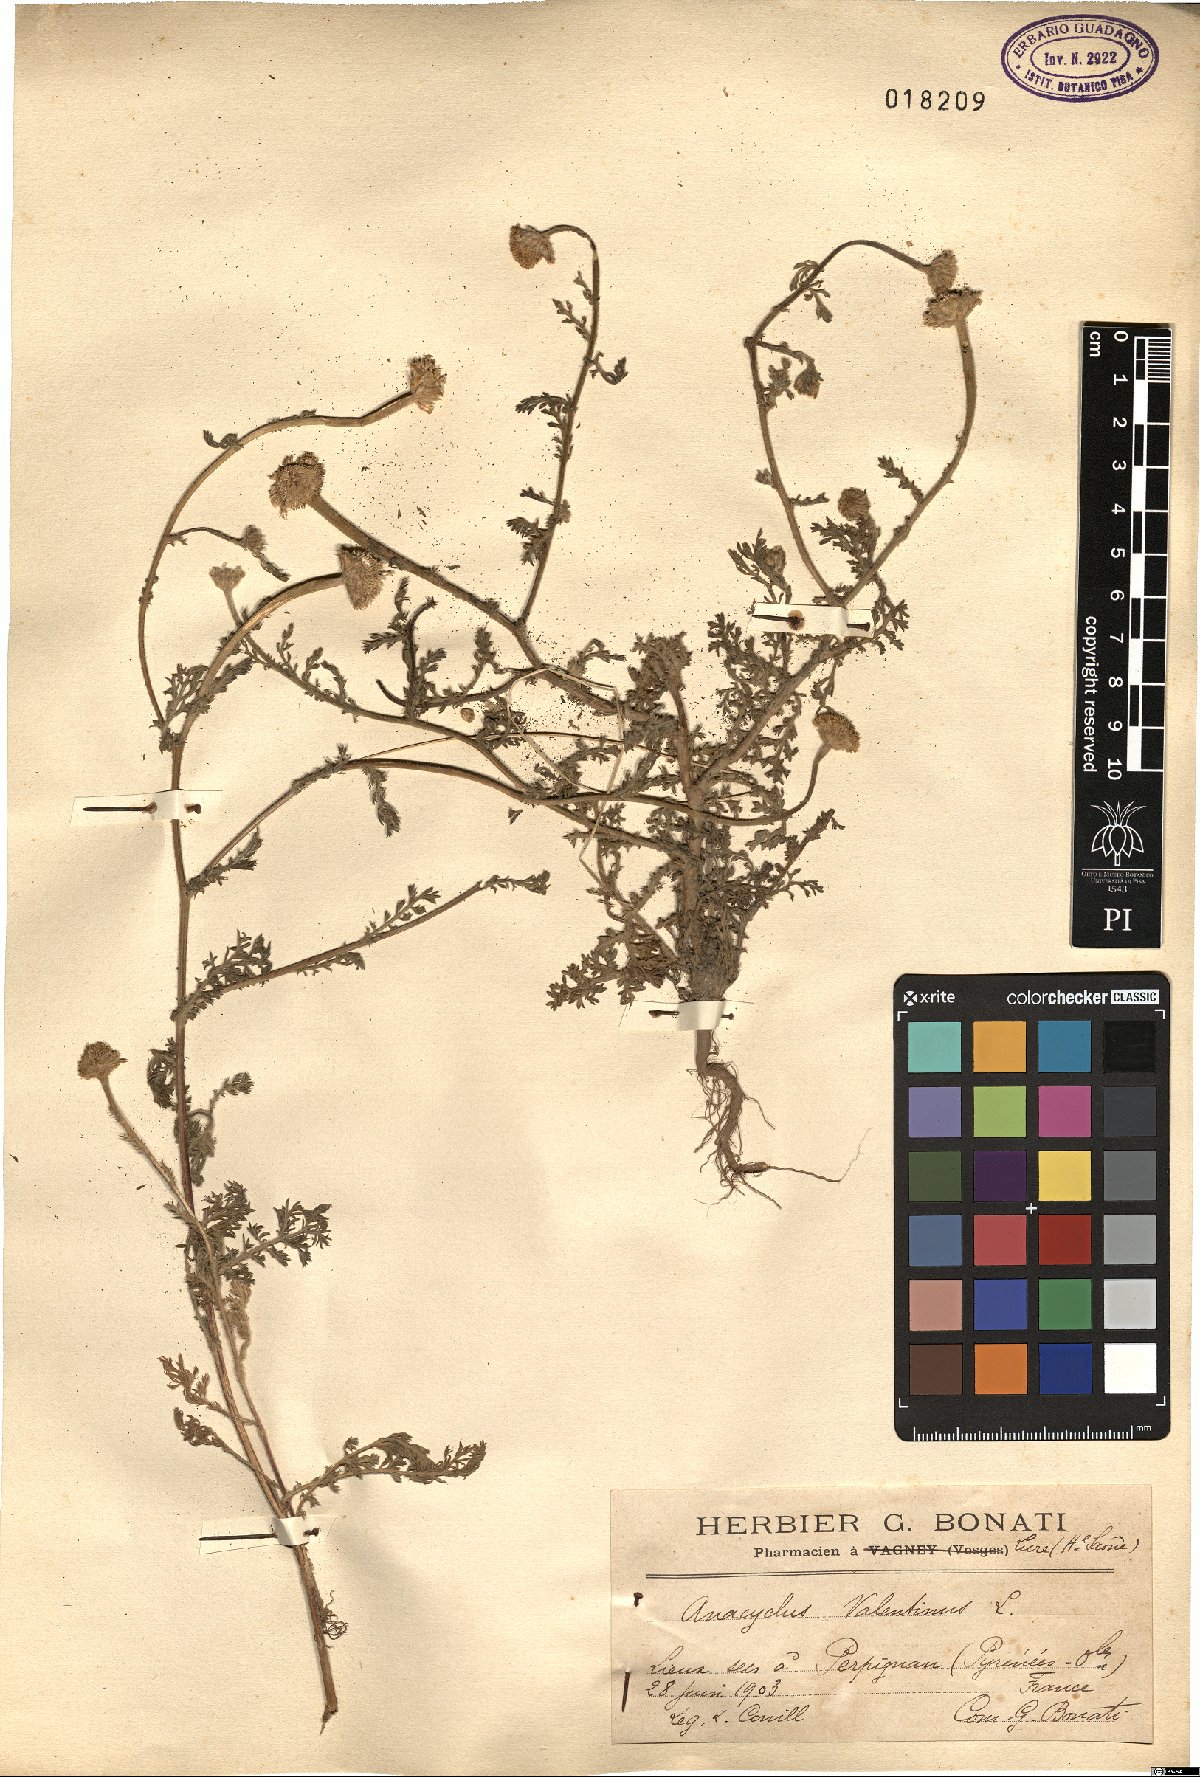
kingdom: Plantae
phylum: Tracheophyta
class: Magnoliopsida
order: Asterales
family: Asteraceae
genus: Anacyclus
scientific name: Anacyclus valentinus
